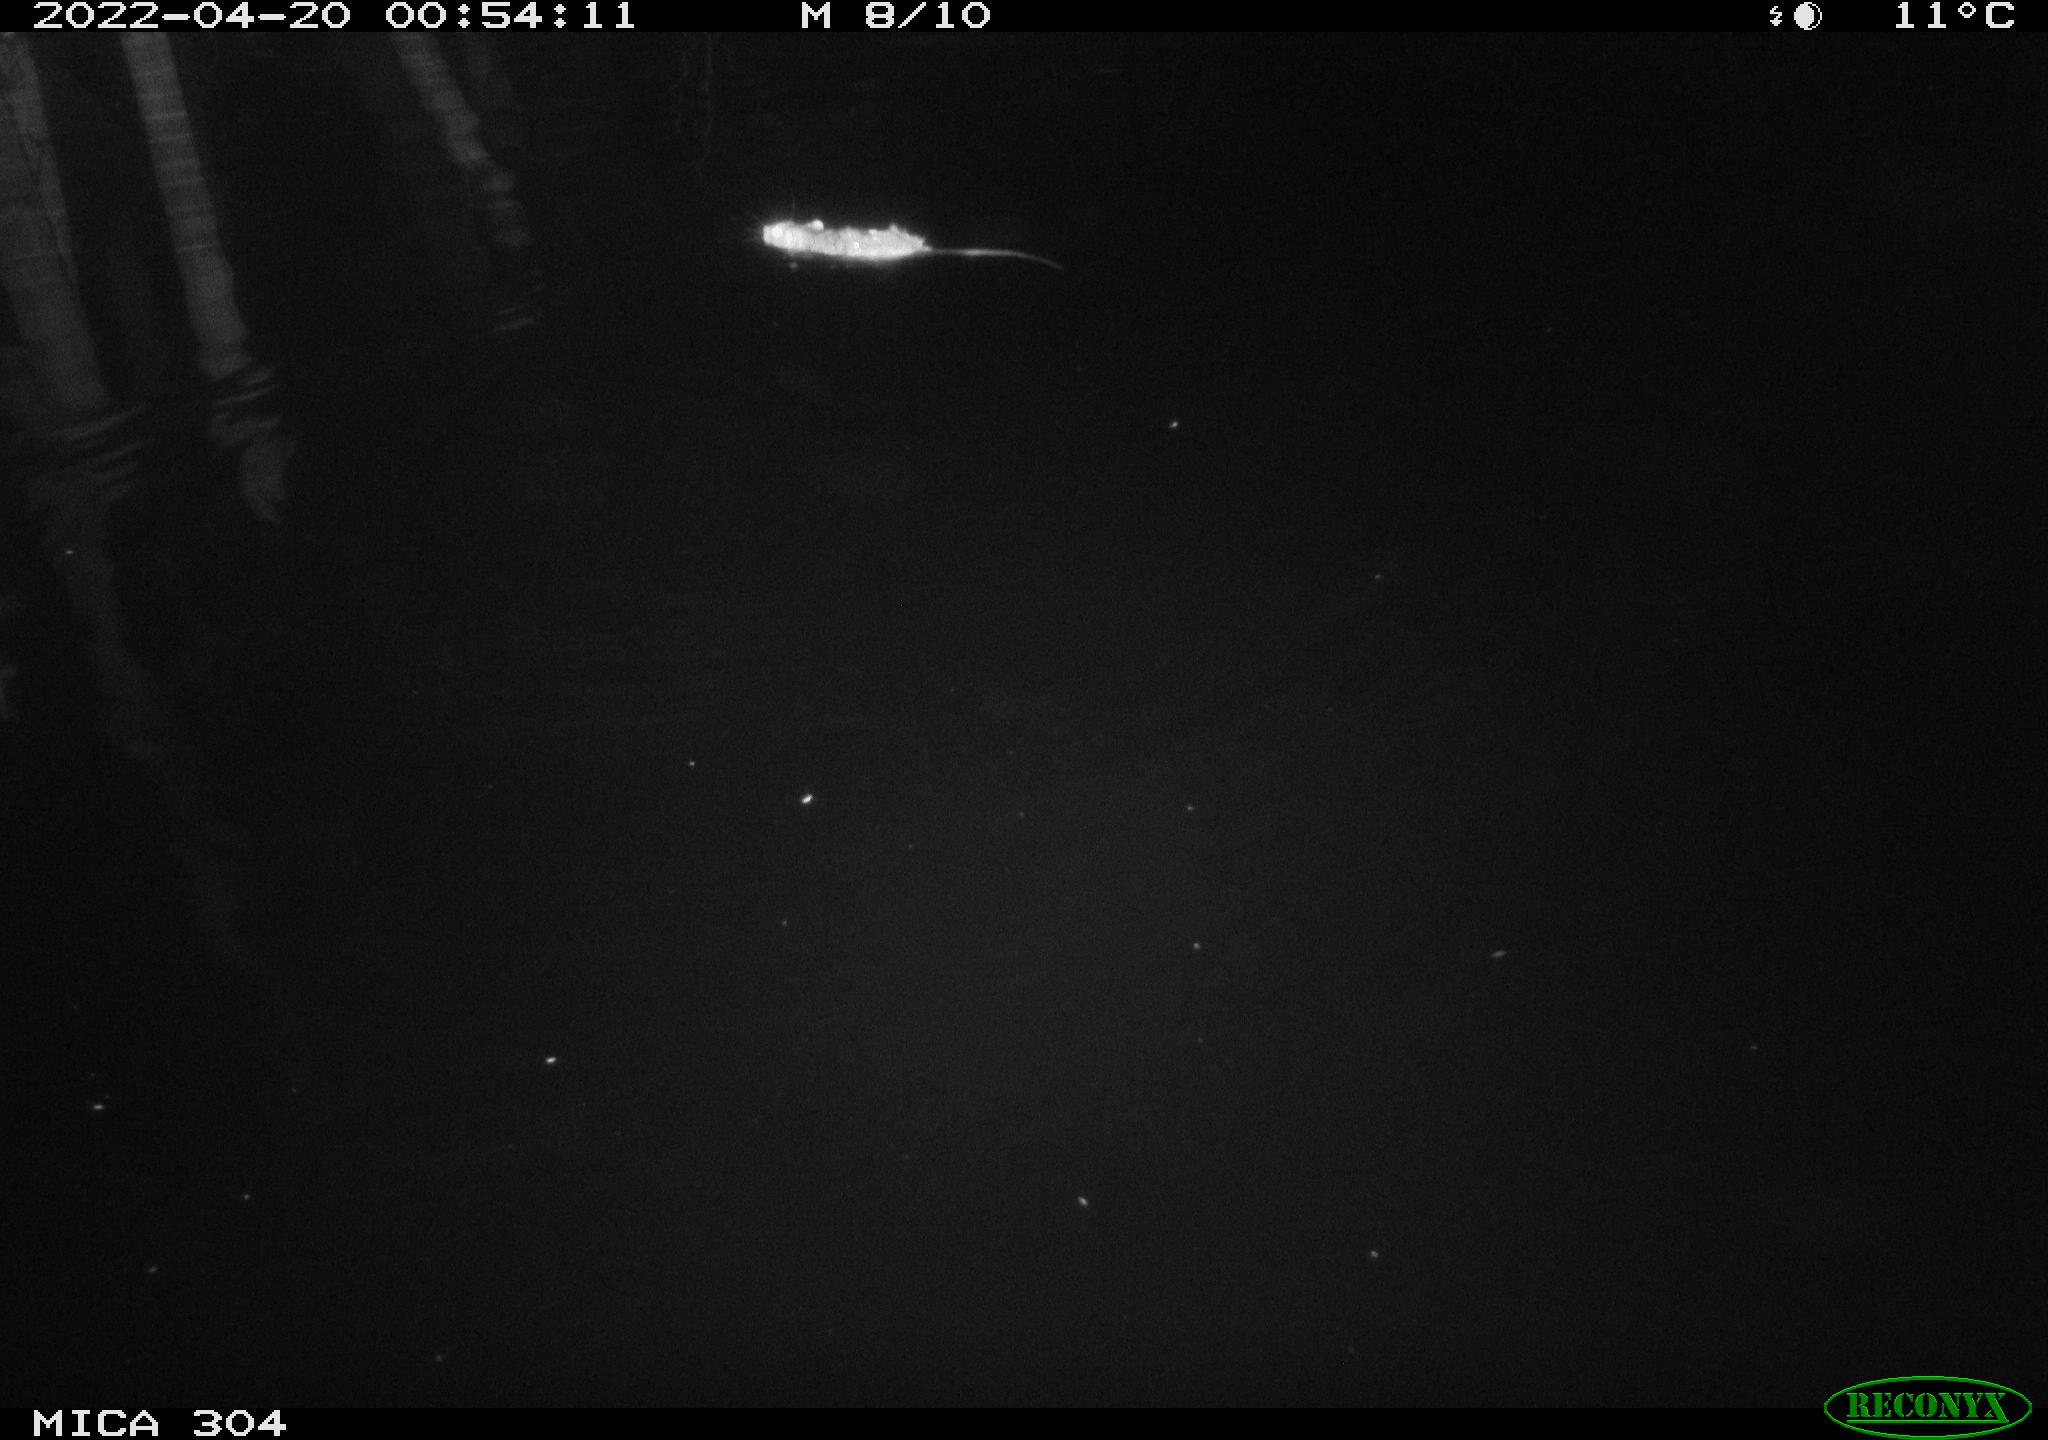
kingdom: Animalia
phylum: Chordata
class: Mammalia
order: Rodentia
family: Muridae
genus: Rattus
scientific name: Rattus norvegicus
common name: Brown rat
